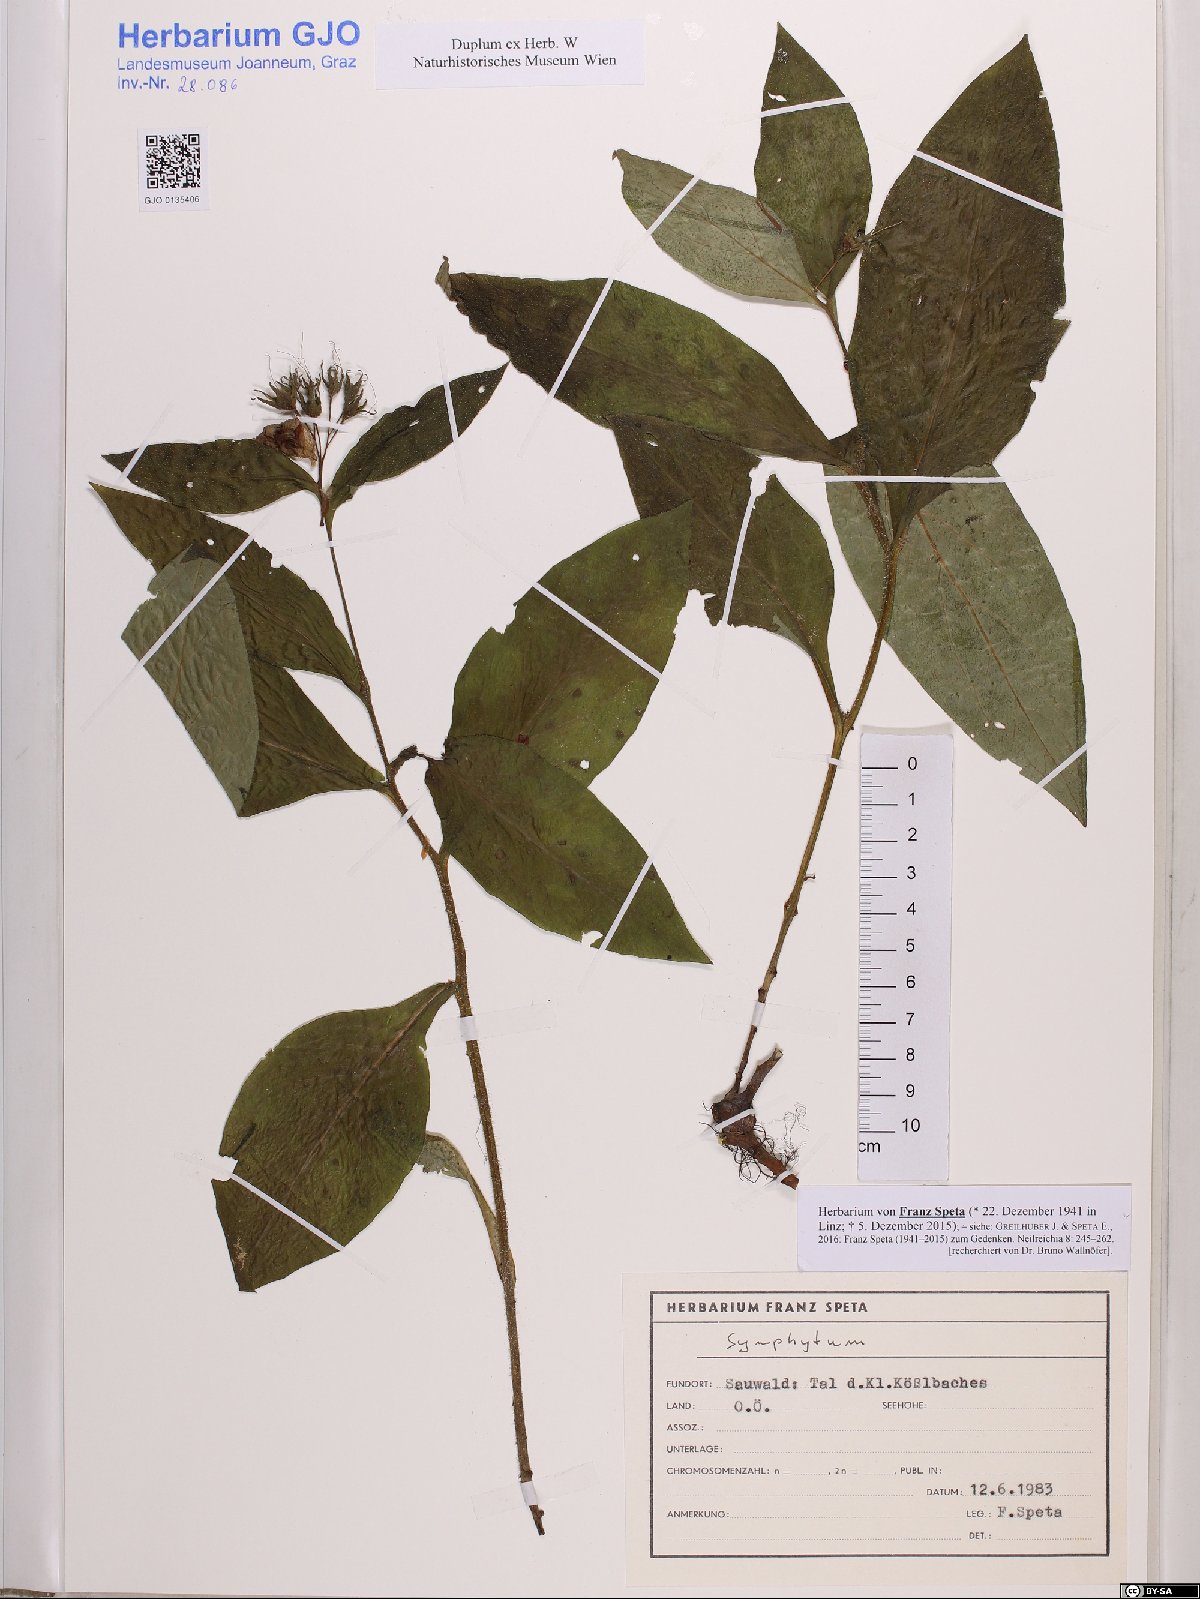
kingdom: Plantae
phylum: Tracheophyta
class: Magnoliopsida
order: Boraginales
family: Boraginaceae
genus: Symphytum
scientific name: Symphytum
